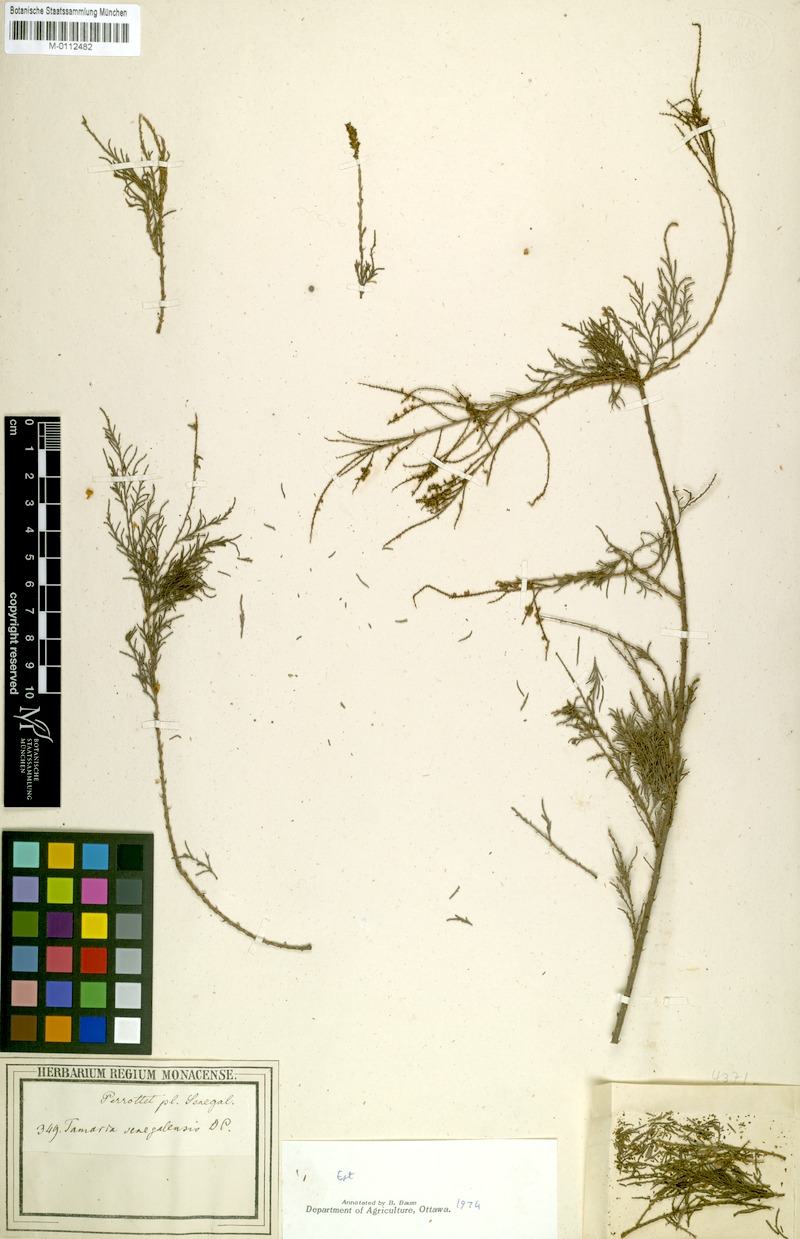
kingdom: Plantae
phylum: Tracheophyta
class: Magnoliopsida
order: Caryophyllales
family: Tamaricaceae
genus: Tamarix
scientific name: Tamarix senegalensis
